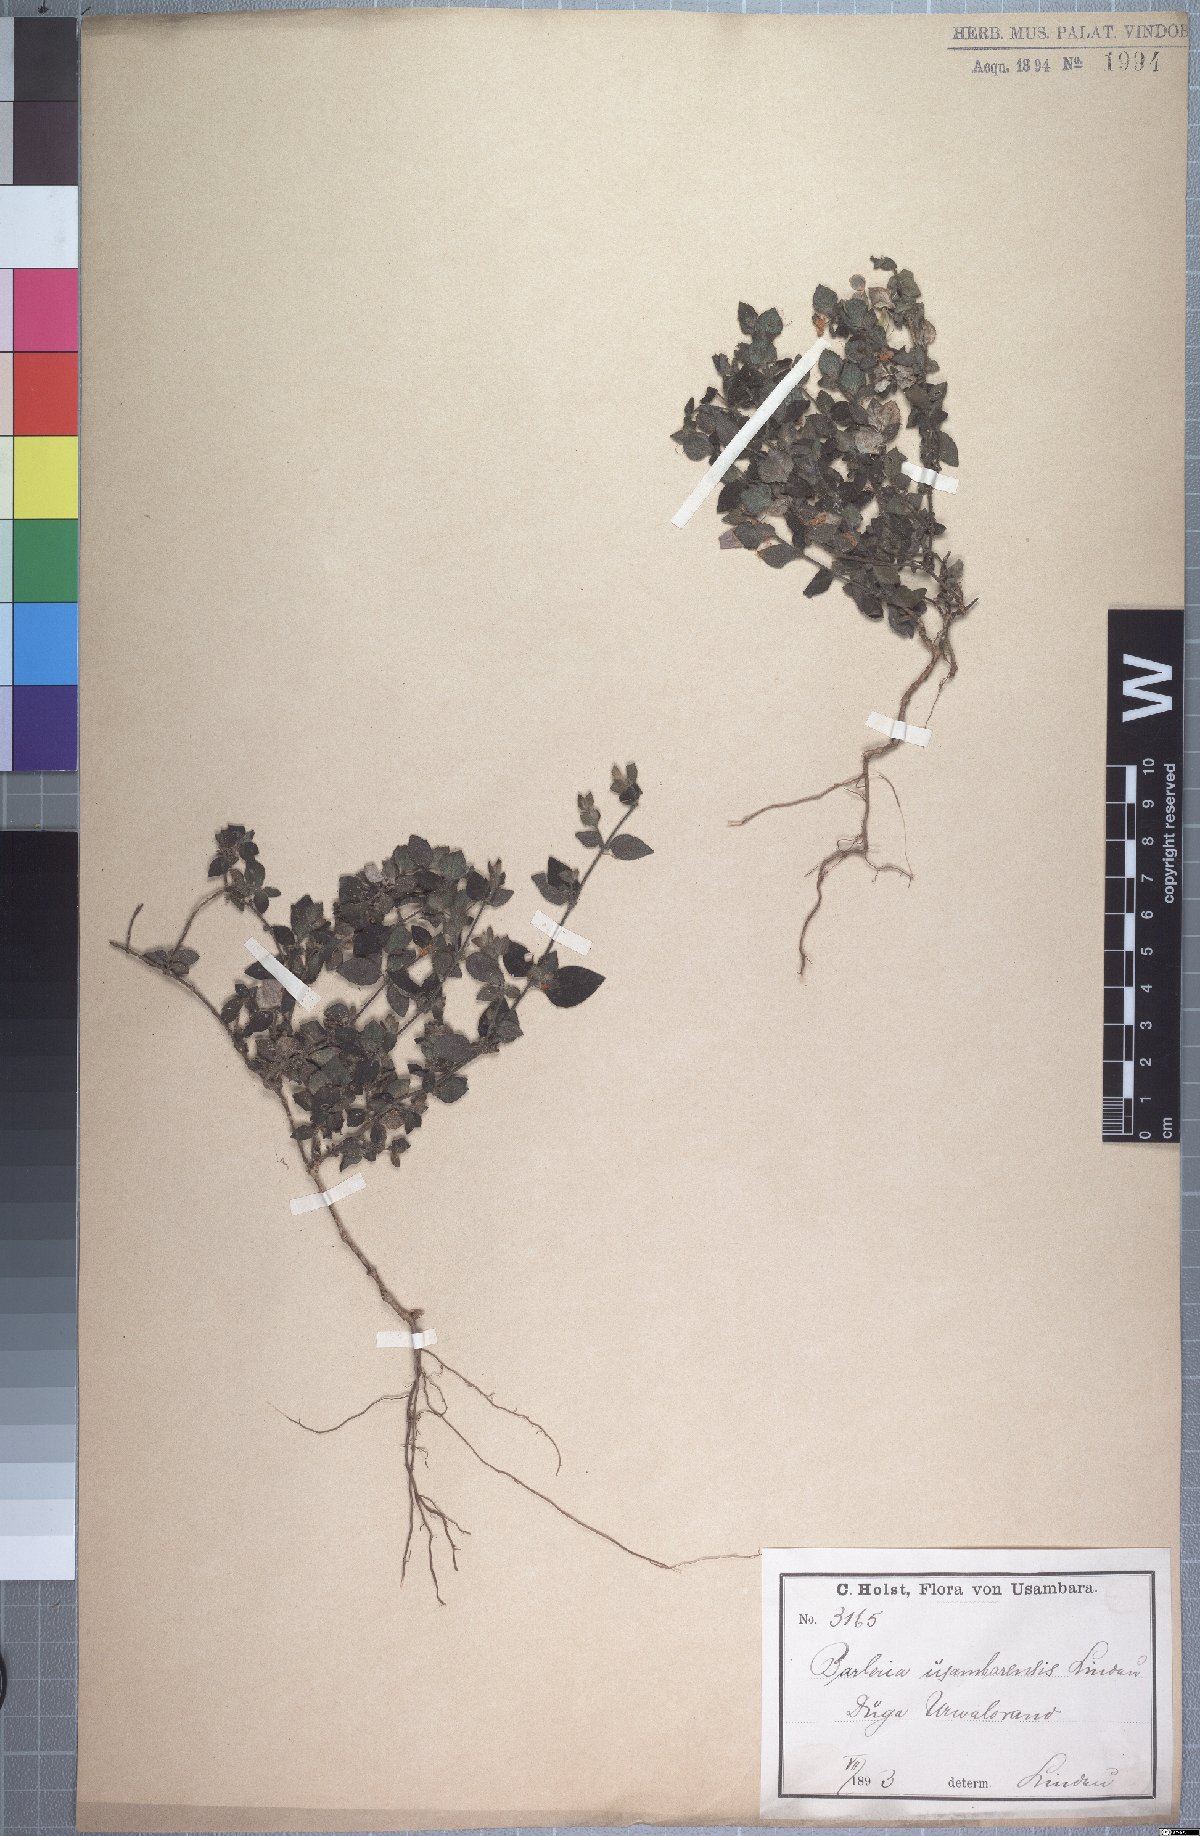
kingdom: Plantae
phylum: Tracheophyta
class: Magnoliopsida
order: Lamiales
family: Acanthaceae
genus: Barleria
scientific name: Barleria usambarica
